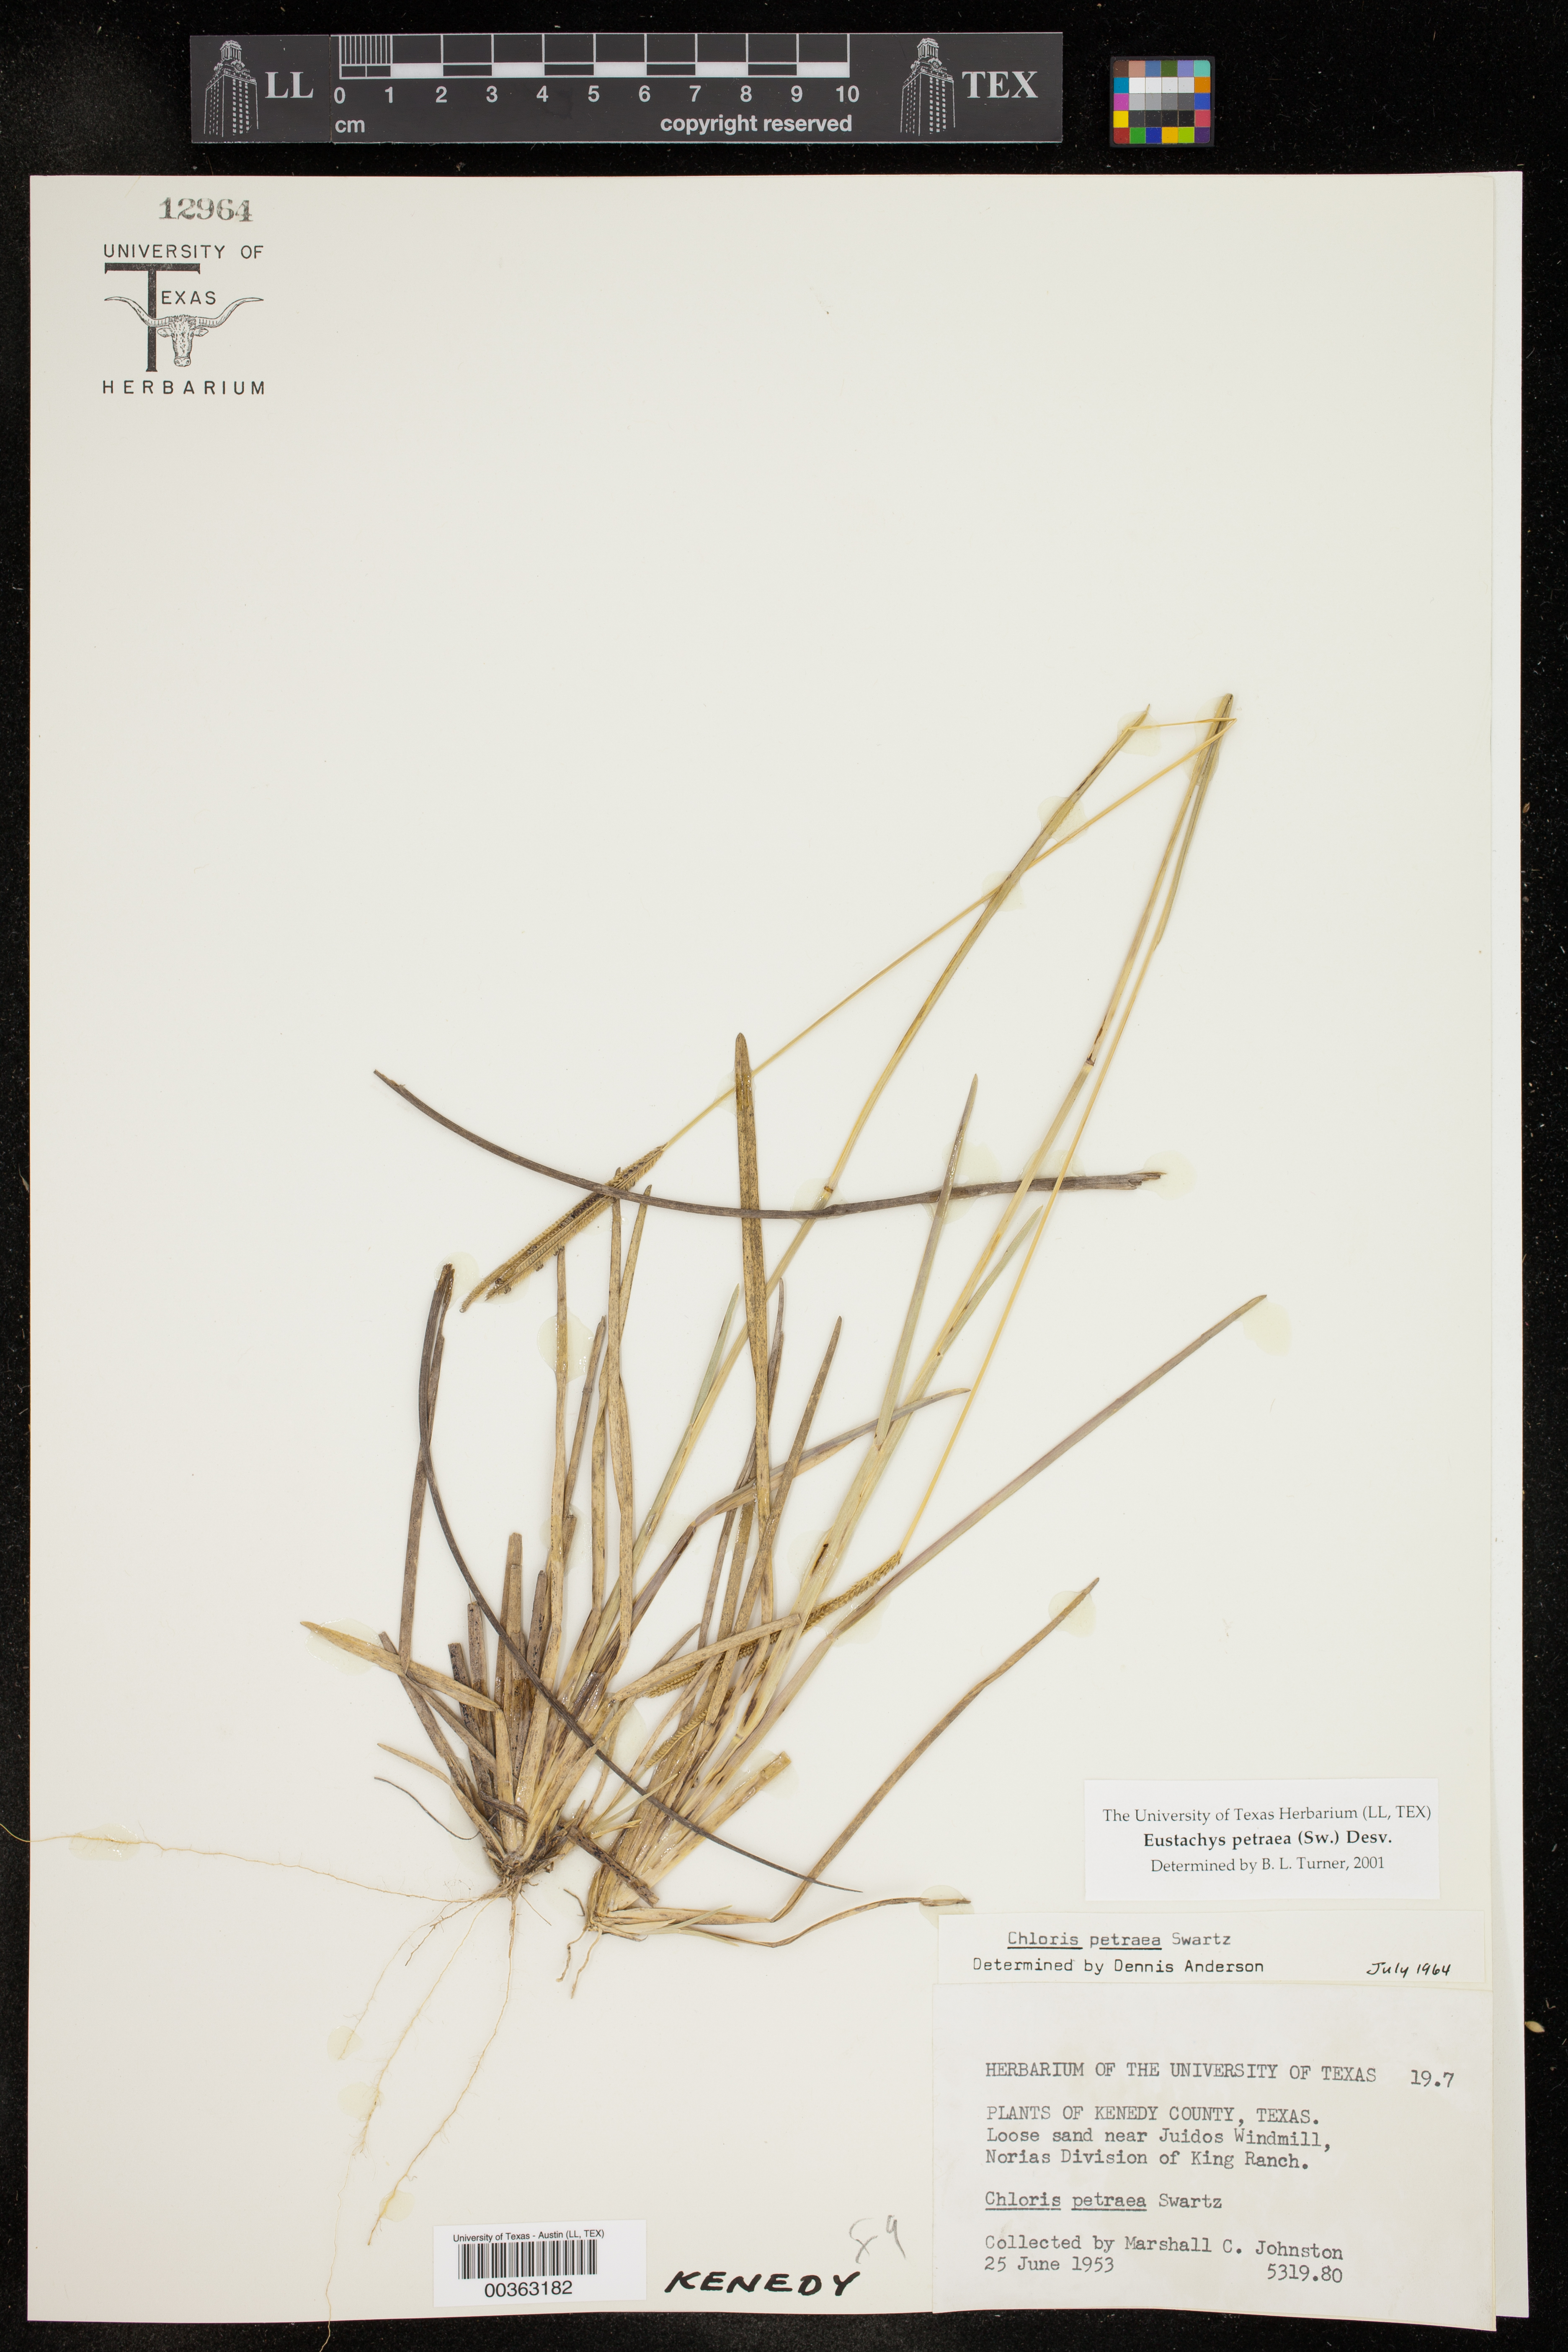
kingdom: Plantae
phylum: Tracheophyta
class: Liliopsida
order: Poales
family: Poaceae
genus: Eustachys
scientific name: Eustachys petraea
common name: Pinewoods fingergrass
